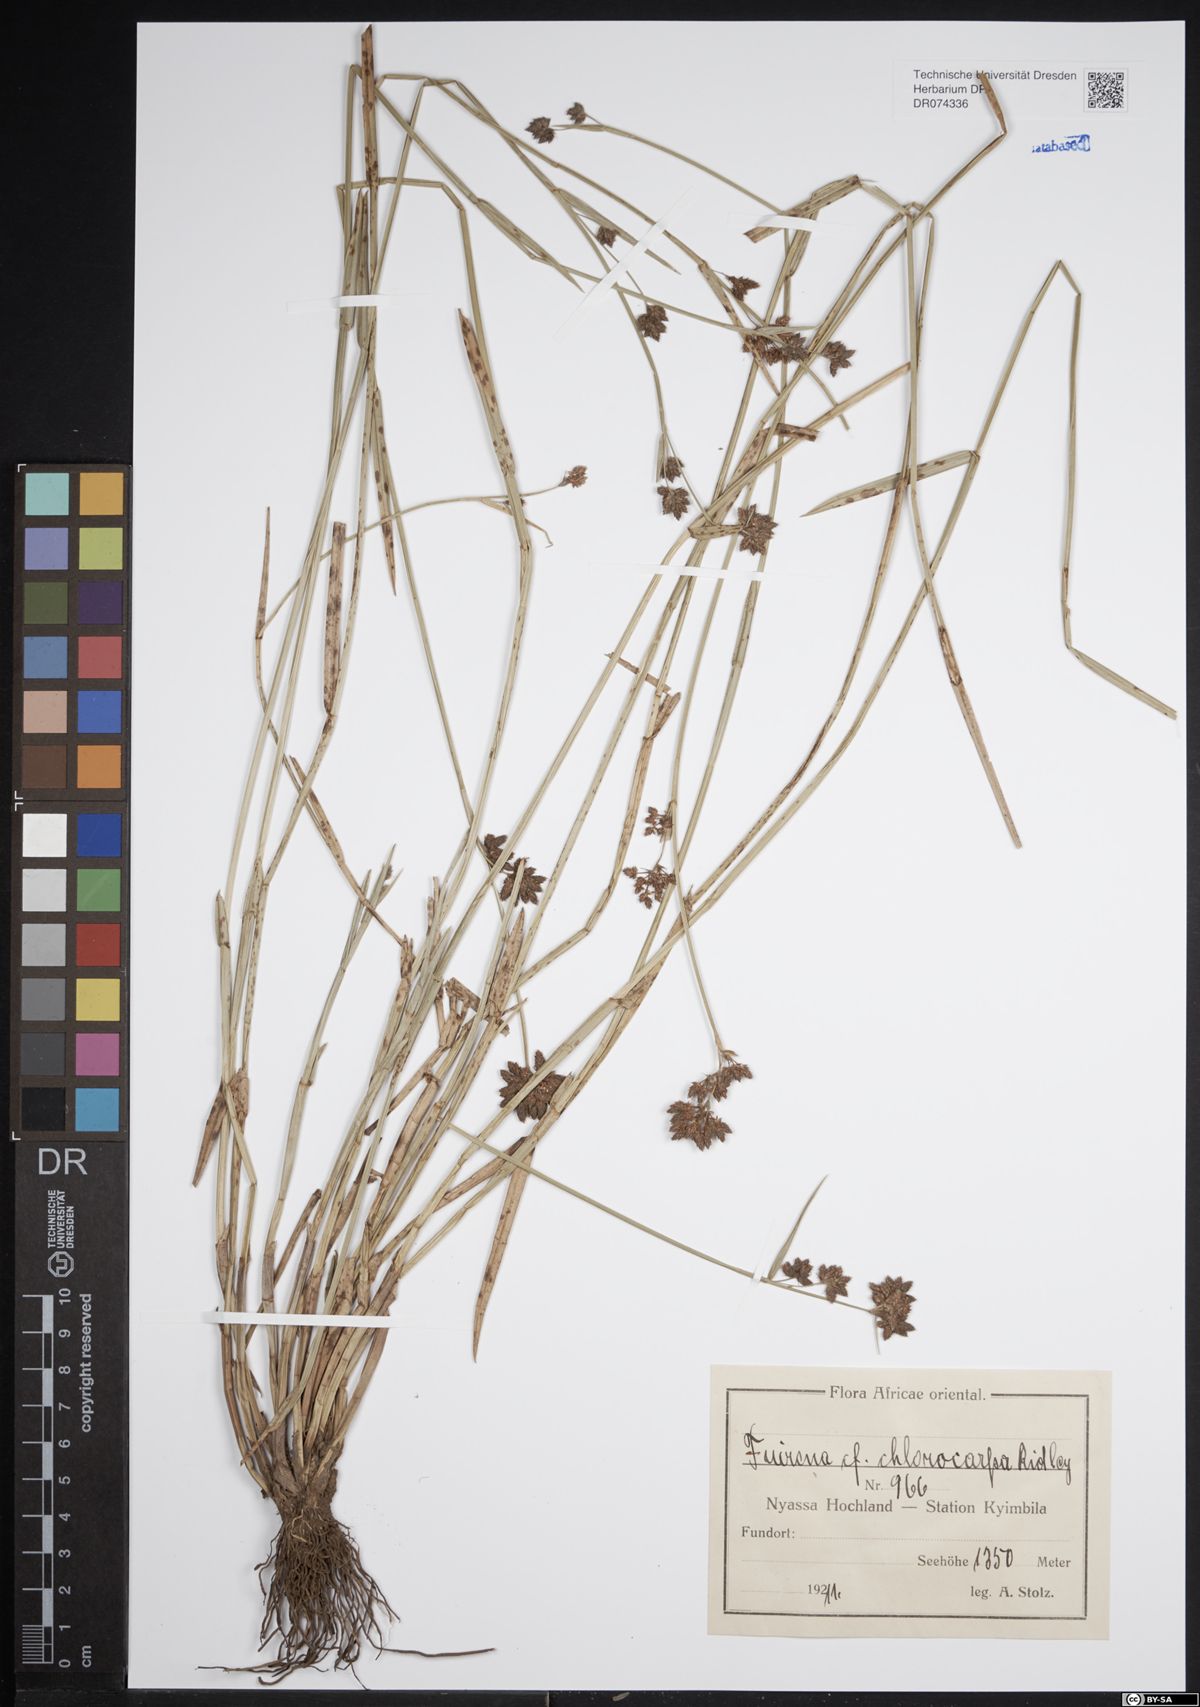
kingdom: Plantae
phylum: Tracheophyta
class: Liliopsida
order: Poales
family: Cyperaceae
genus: Fuirena
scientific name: Fuirena stricta
